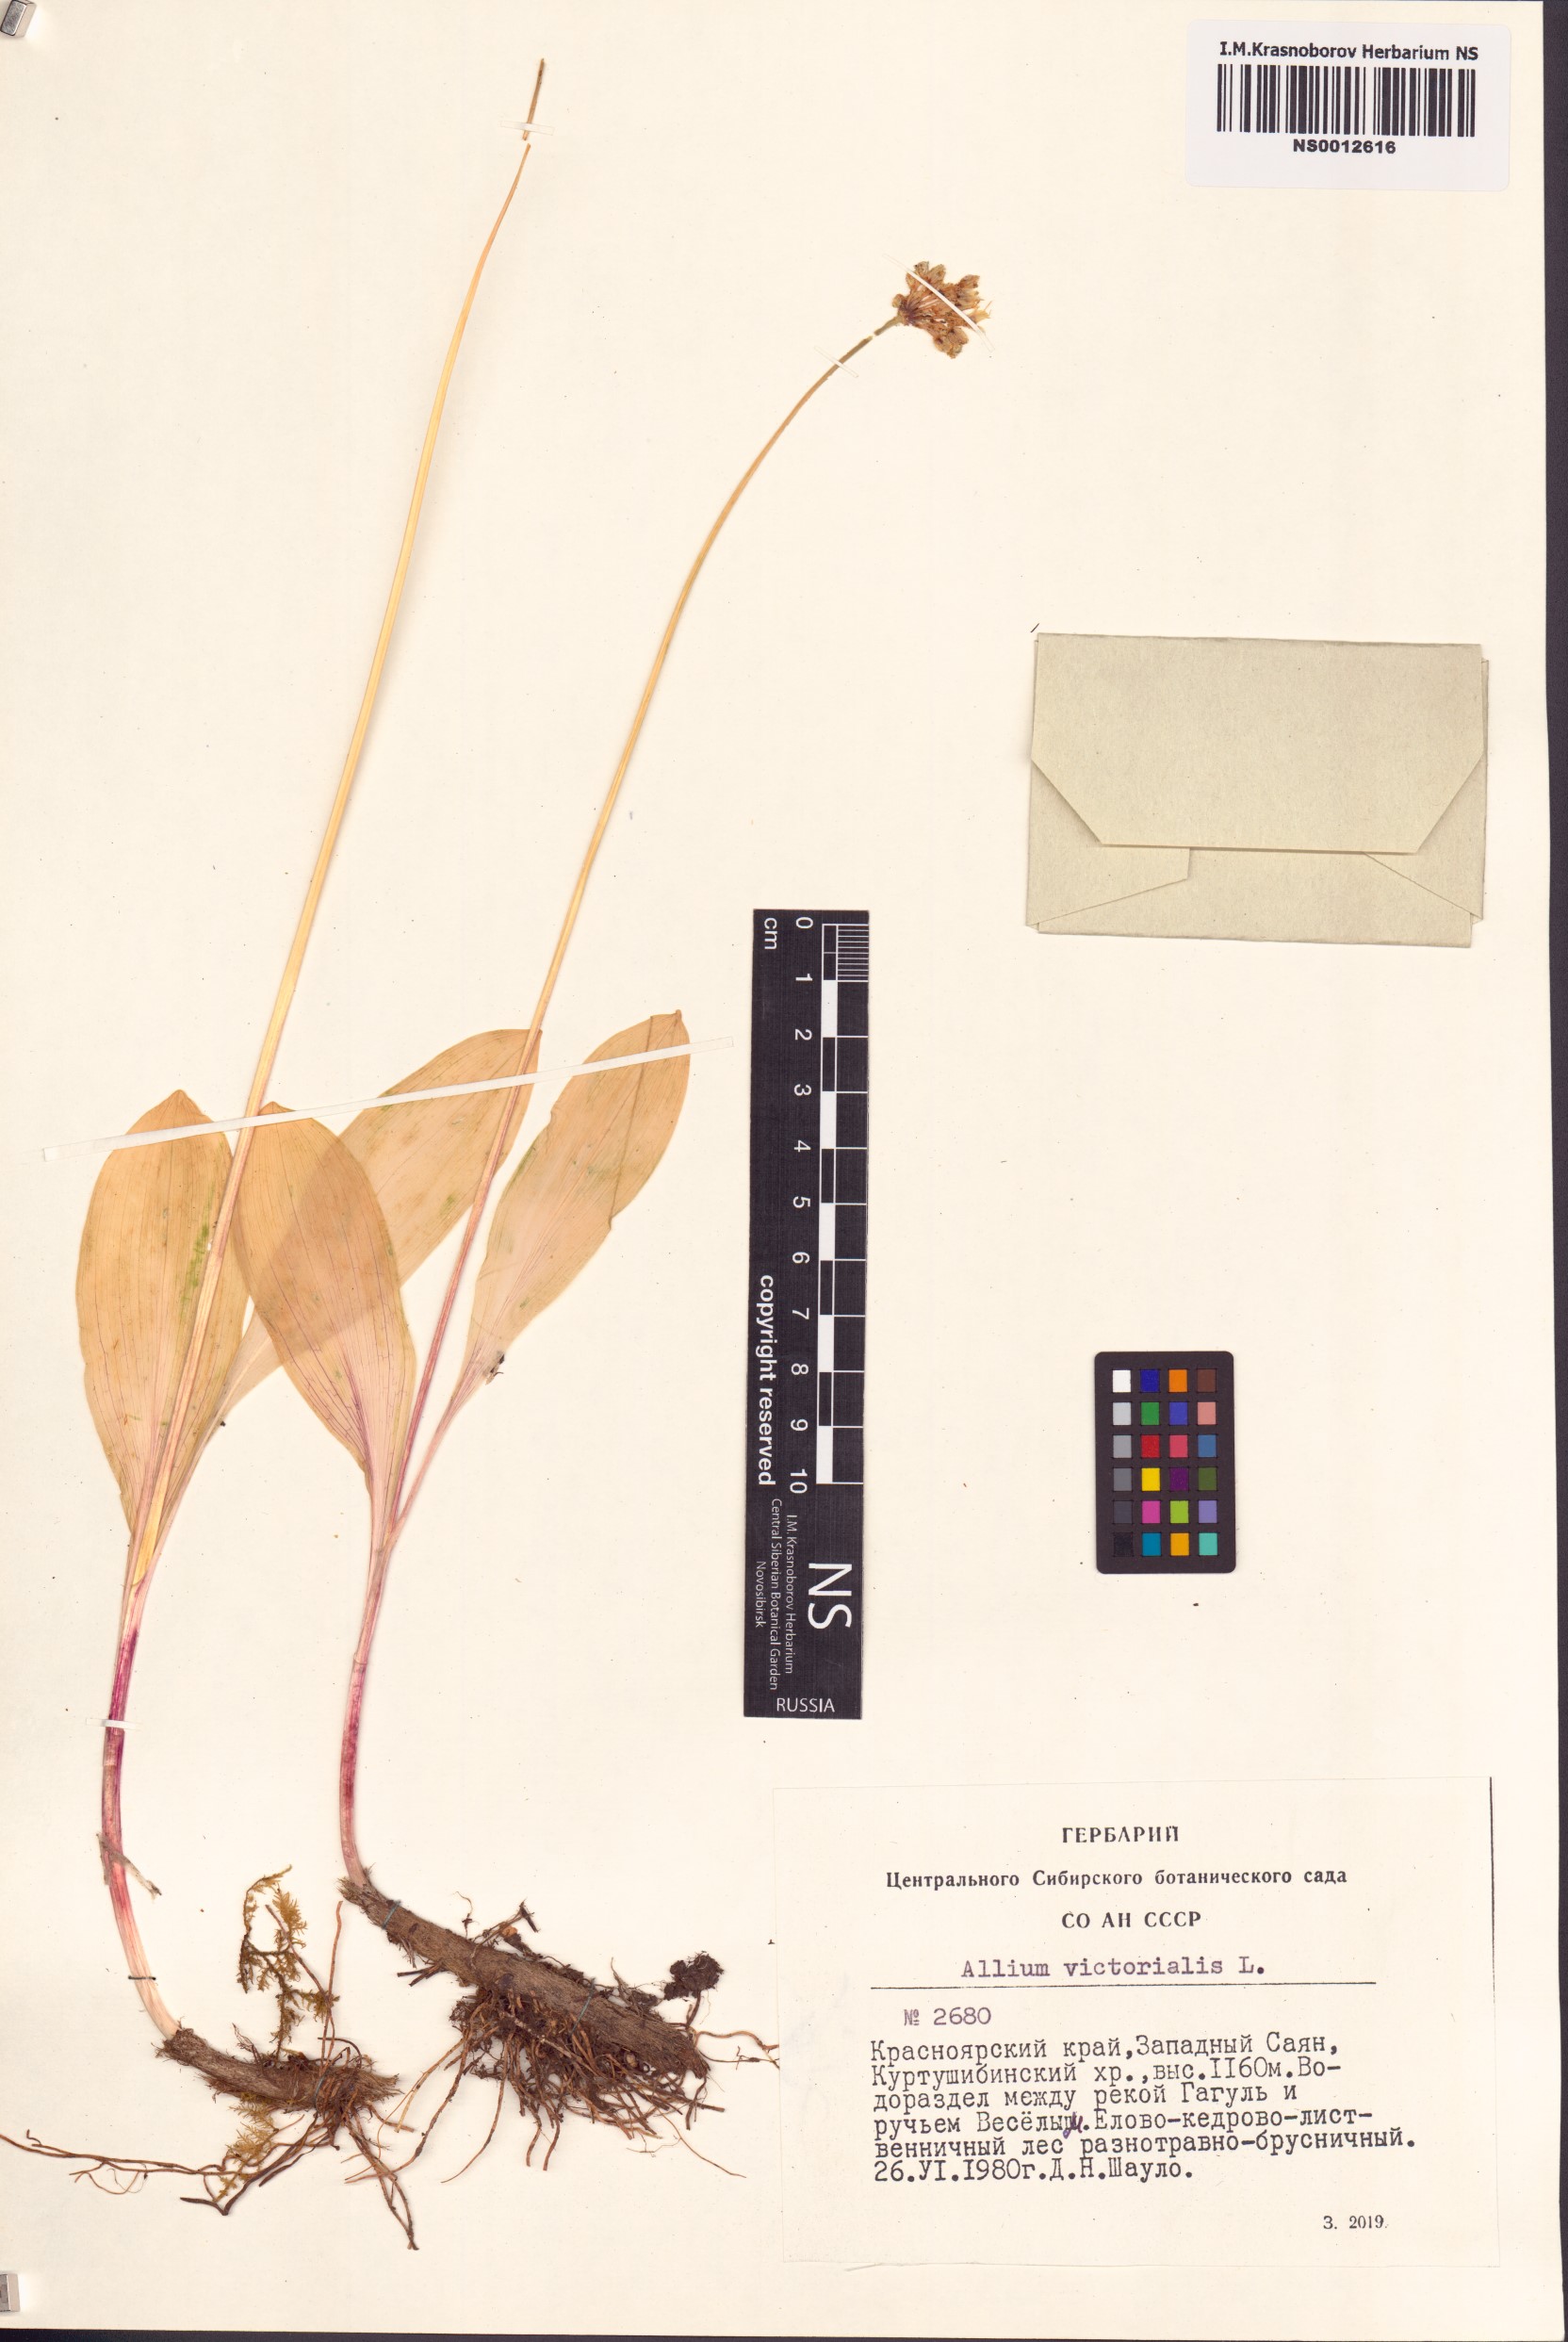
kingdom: Plantae
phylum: Tracheophyta
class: Liliopsida
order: Asparagales
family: Amaryllidaceae
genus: Allium
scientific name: Allium microdictyon
